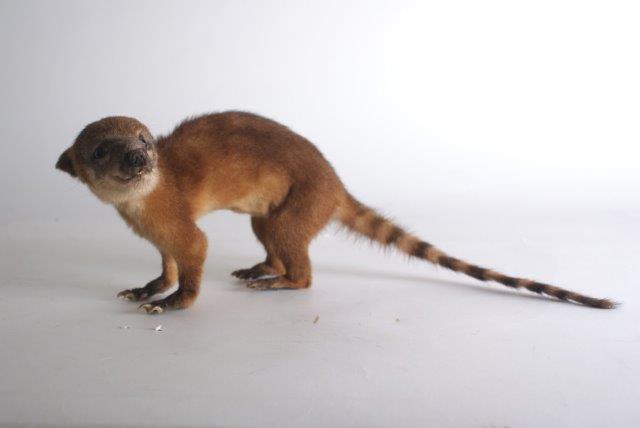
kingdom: Animalia
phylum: Chordata
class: Mammalia
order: Carnivora
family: Procyonidae
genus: Nasua
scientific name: Nasua nasua
